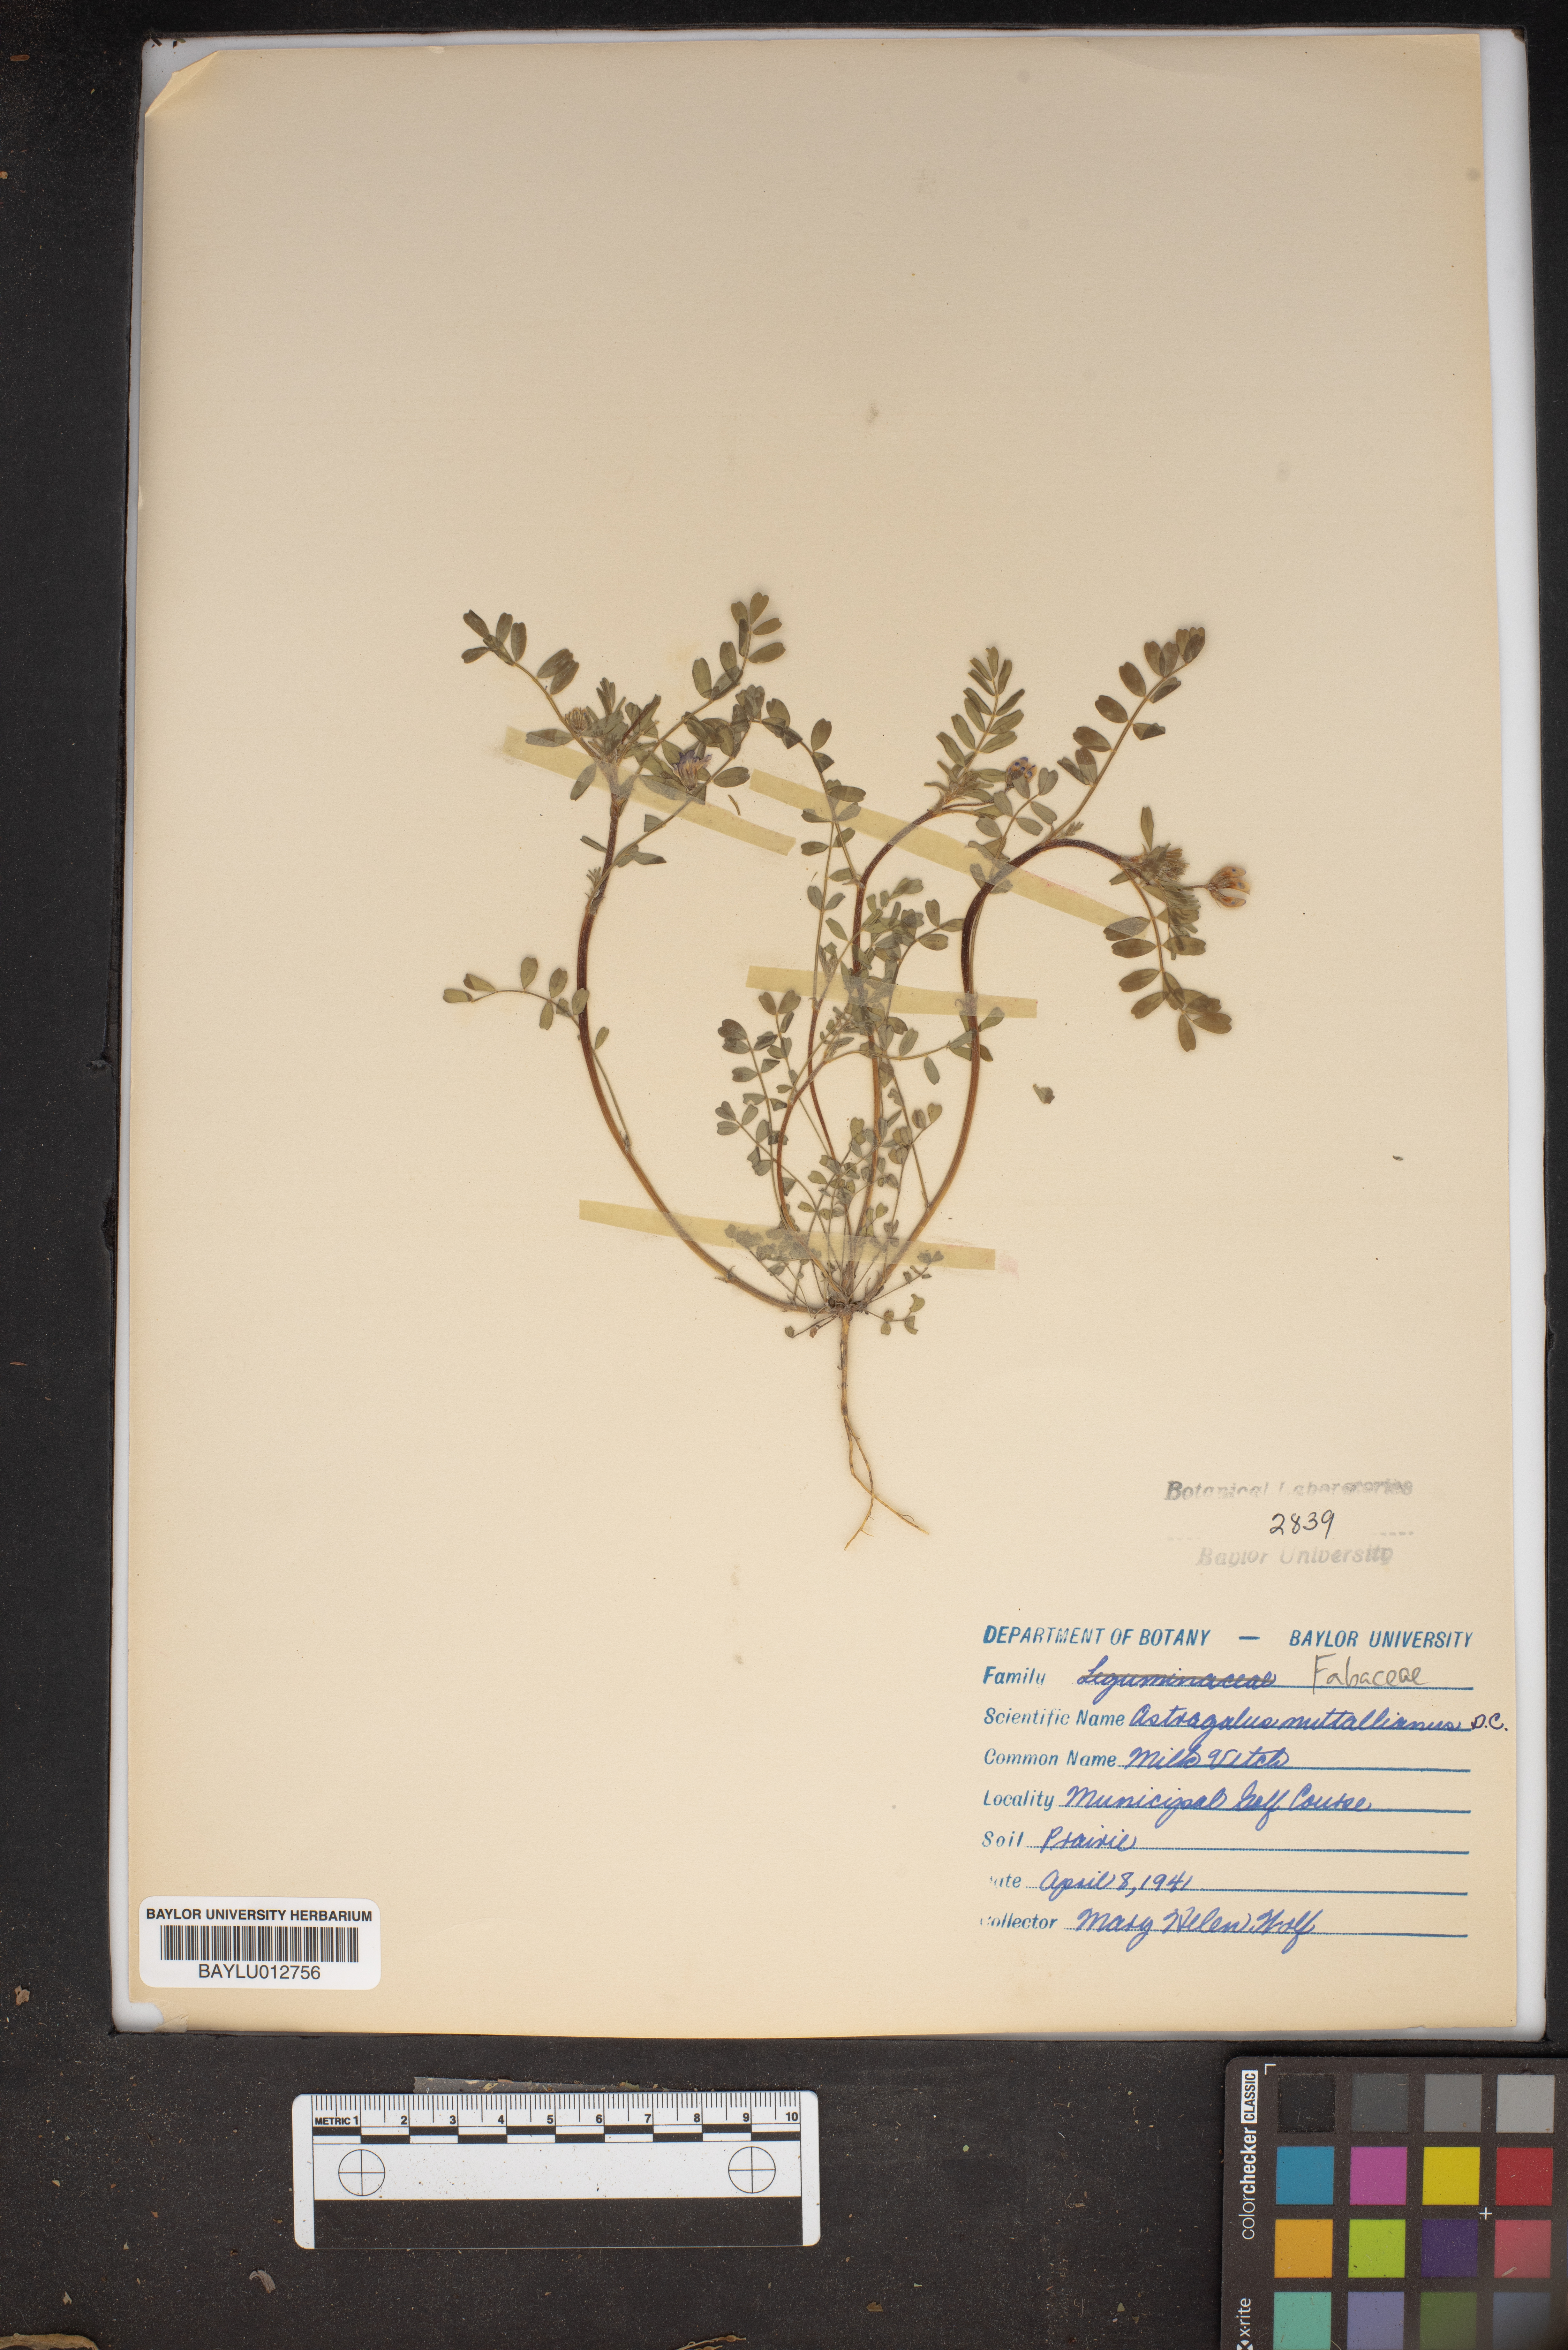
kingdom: Plantae
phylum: Tracheophyta
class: Magnoliopsida
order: Fabales
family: Fabaceae
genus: Astragalus
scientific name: Astragalus nuttallianus
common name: Smallflowered milkvetch
